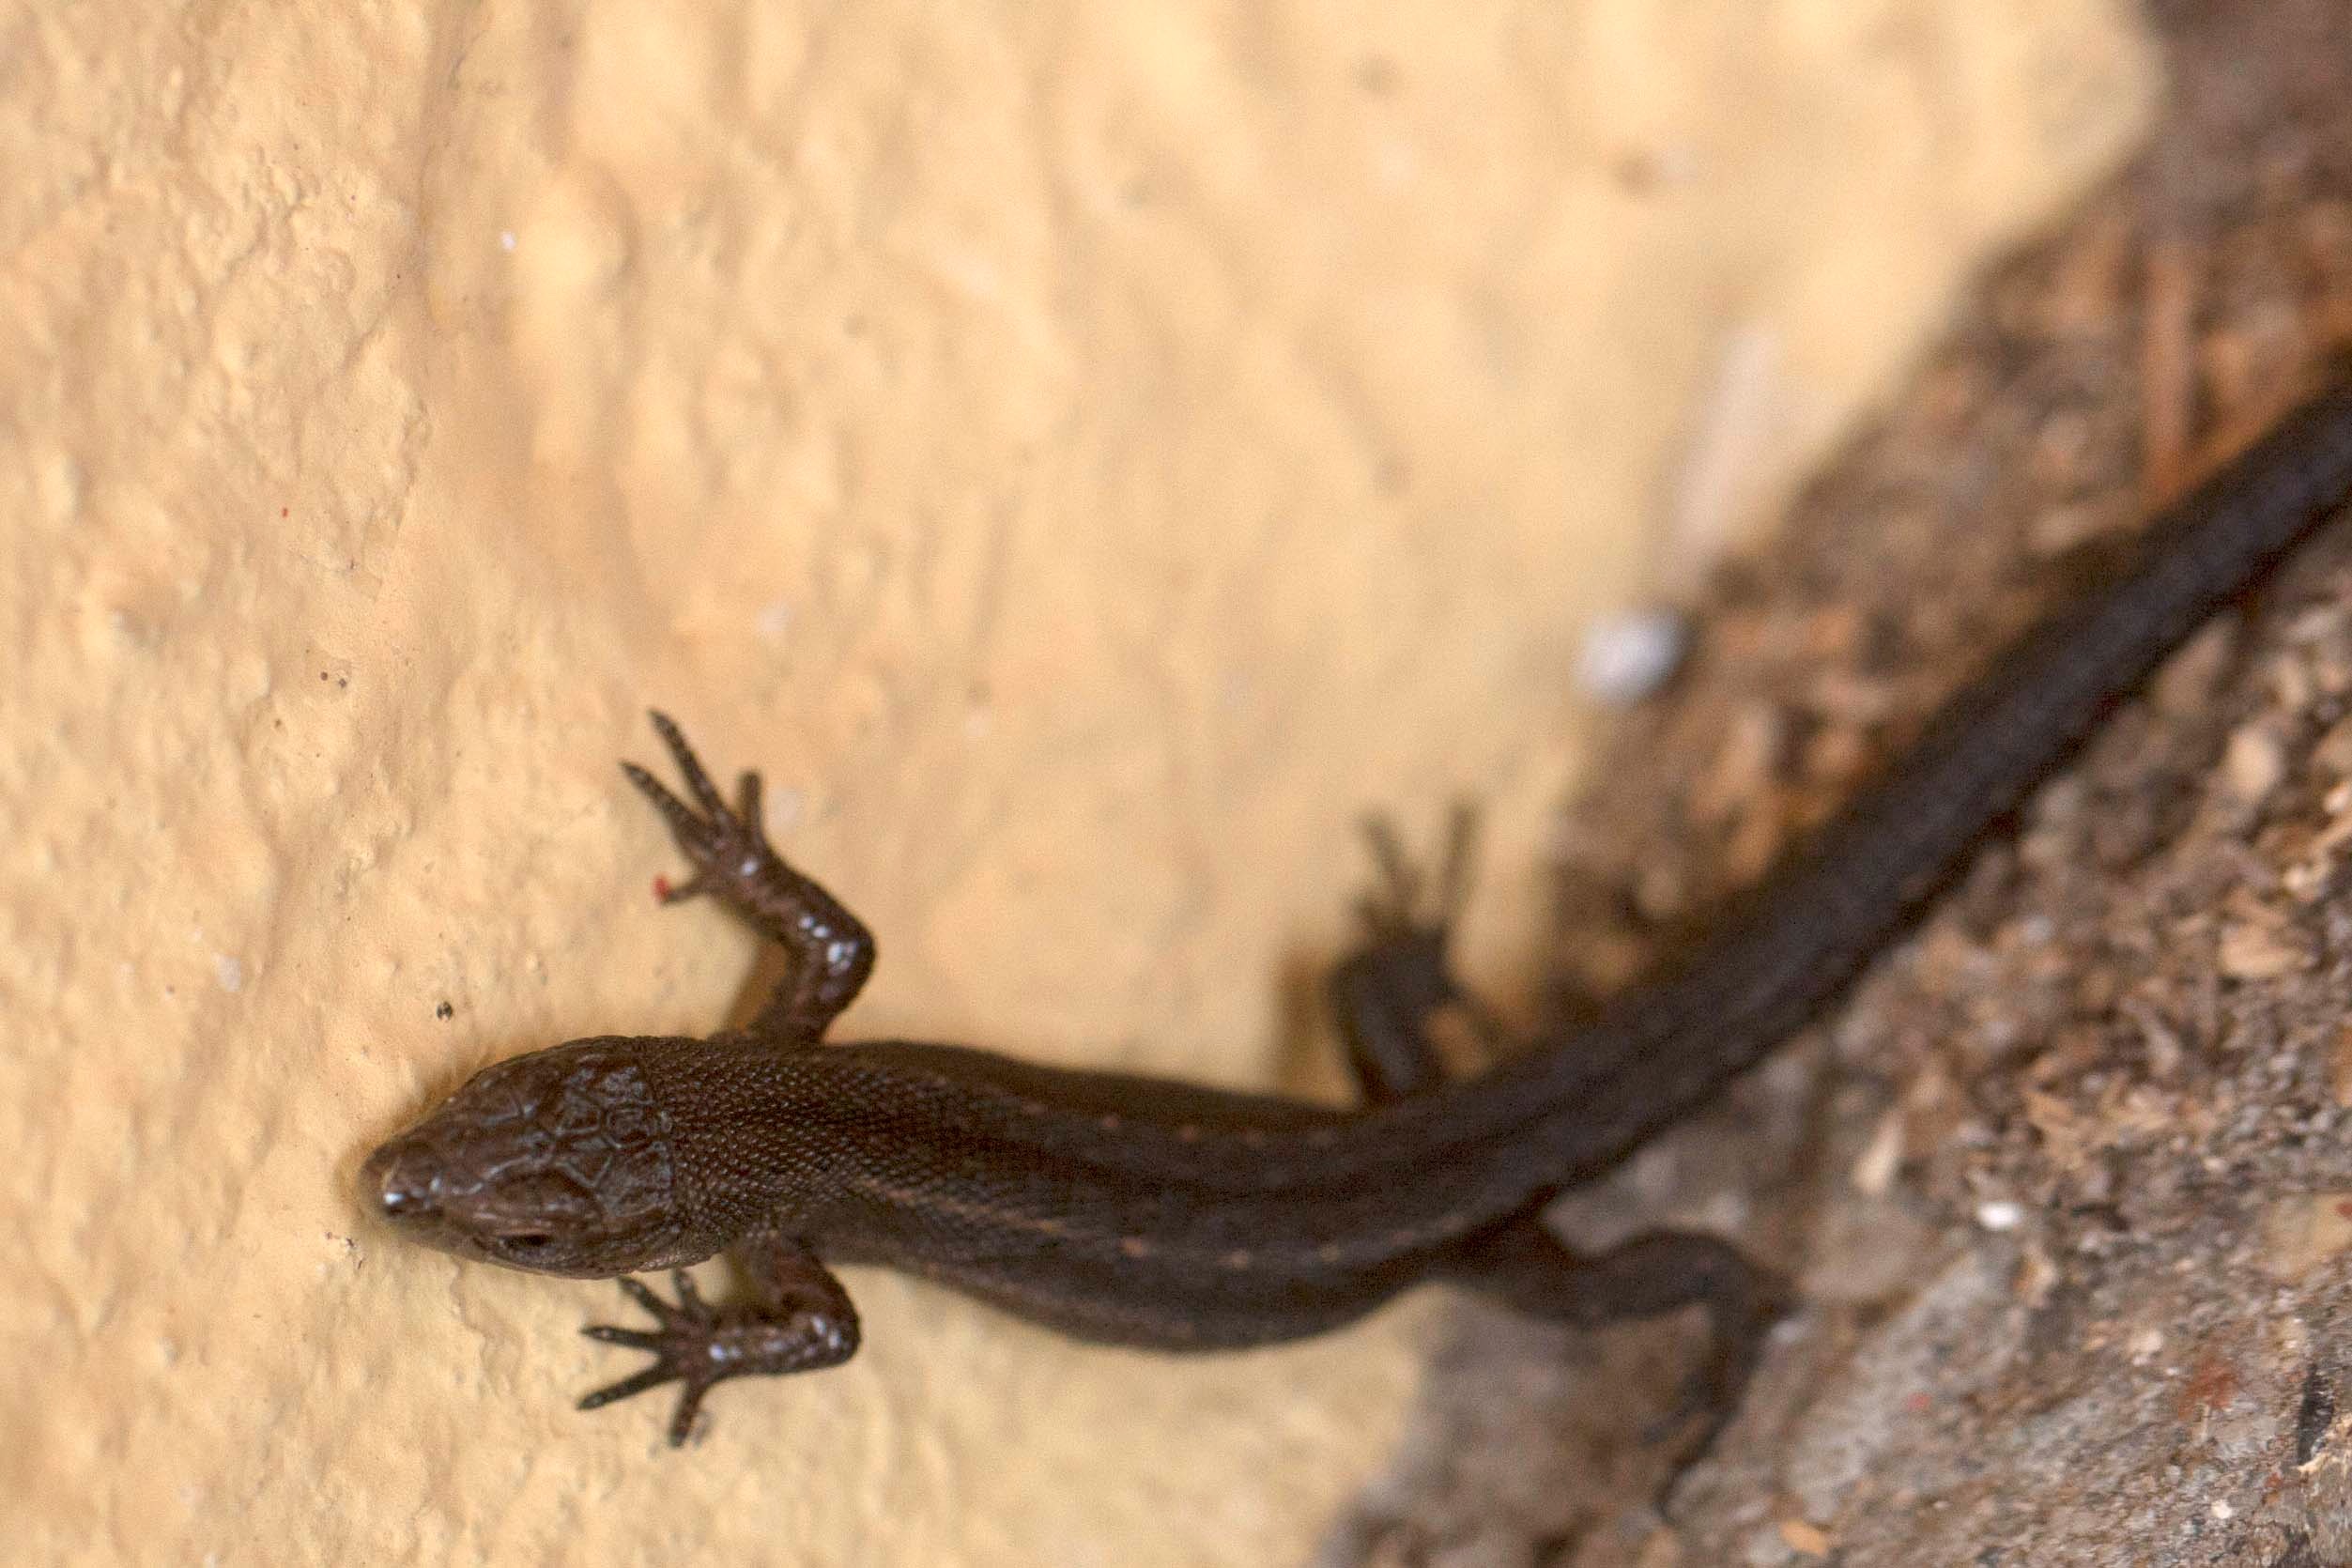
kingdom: Animalia
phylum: Chordata
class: Squamata
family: Lacertidae
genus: Zootoca
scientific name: Zootoca vivipara
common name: Skovfirben
